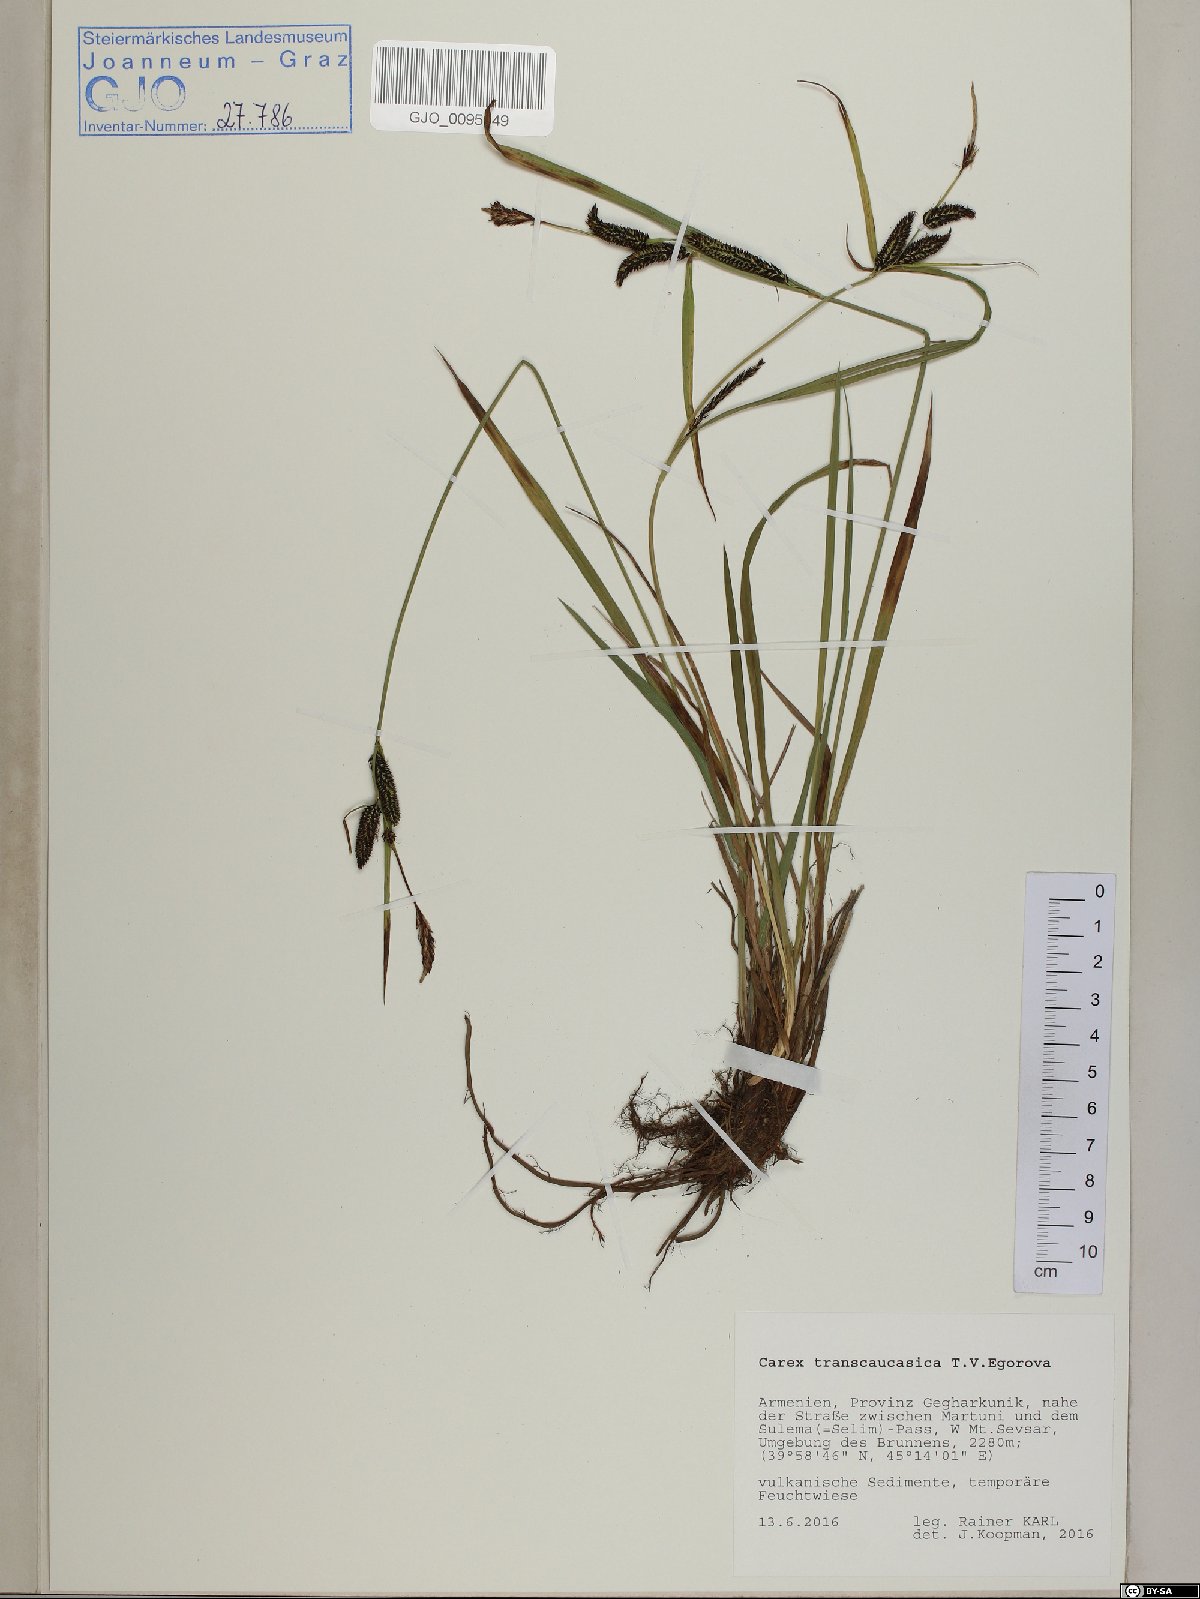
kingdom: Plantae
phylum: Tracheophyta
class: Liliopsida
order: Poales
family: Cyperaceae
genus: Carex
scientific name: Carex nigra
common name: Common sedge
